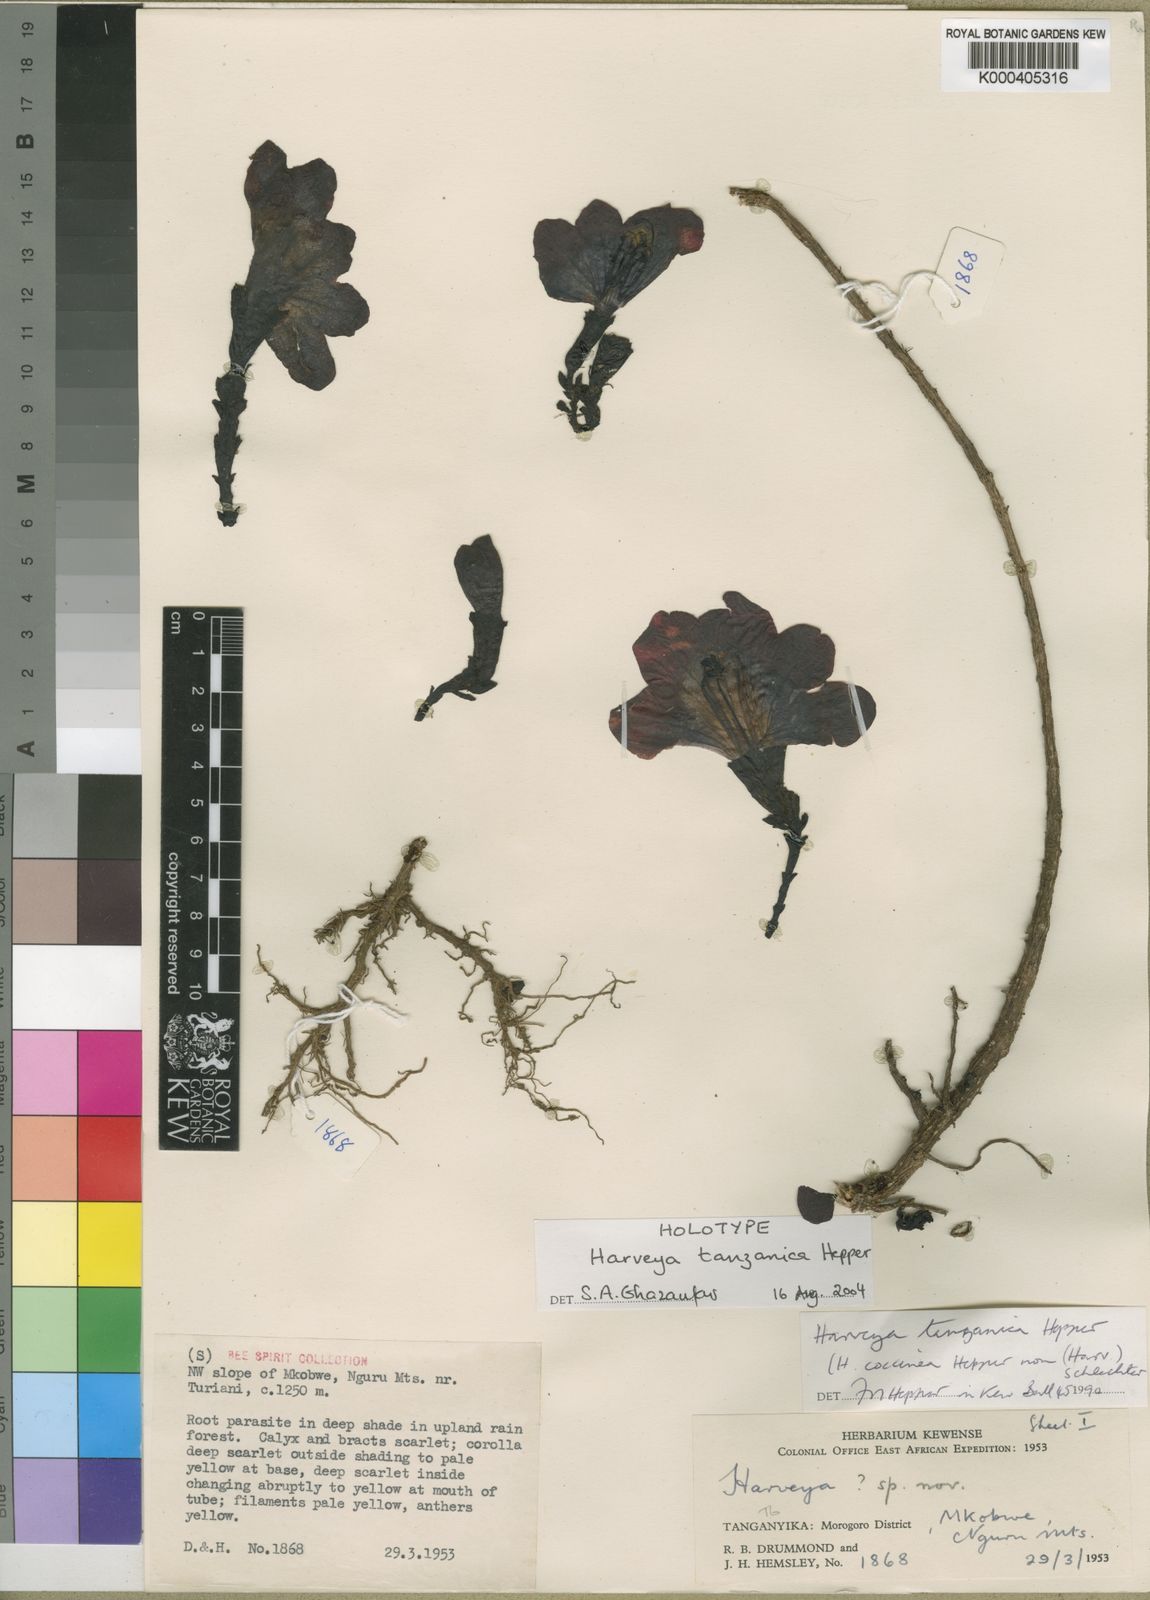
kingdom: Plantae
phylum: Tracheophyta
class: Magnoliopsida
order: Lamiales
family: Orobanchaceae
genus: Harveya
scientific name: Harveya tanzanica
